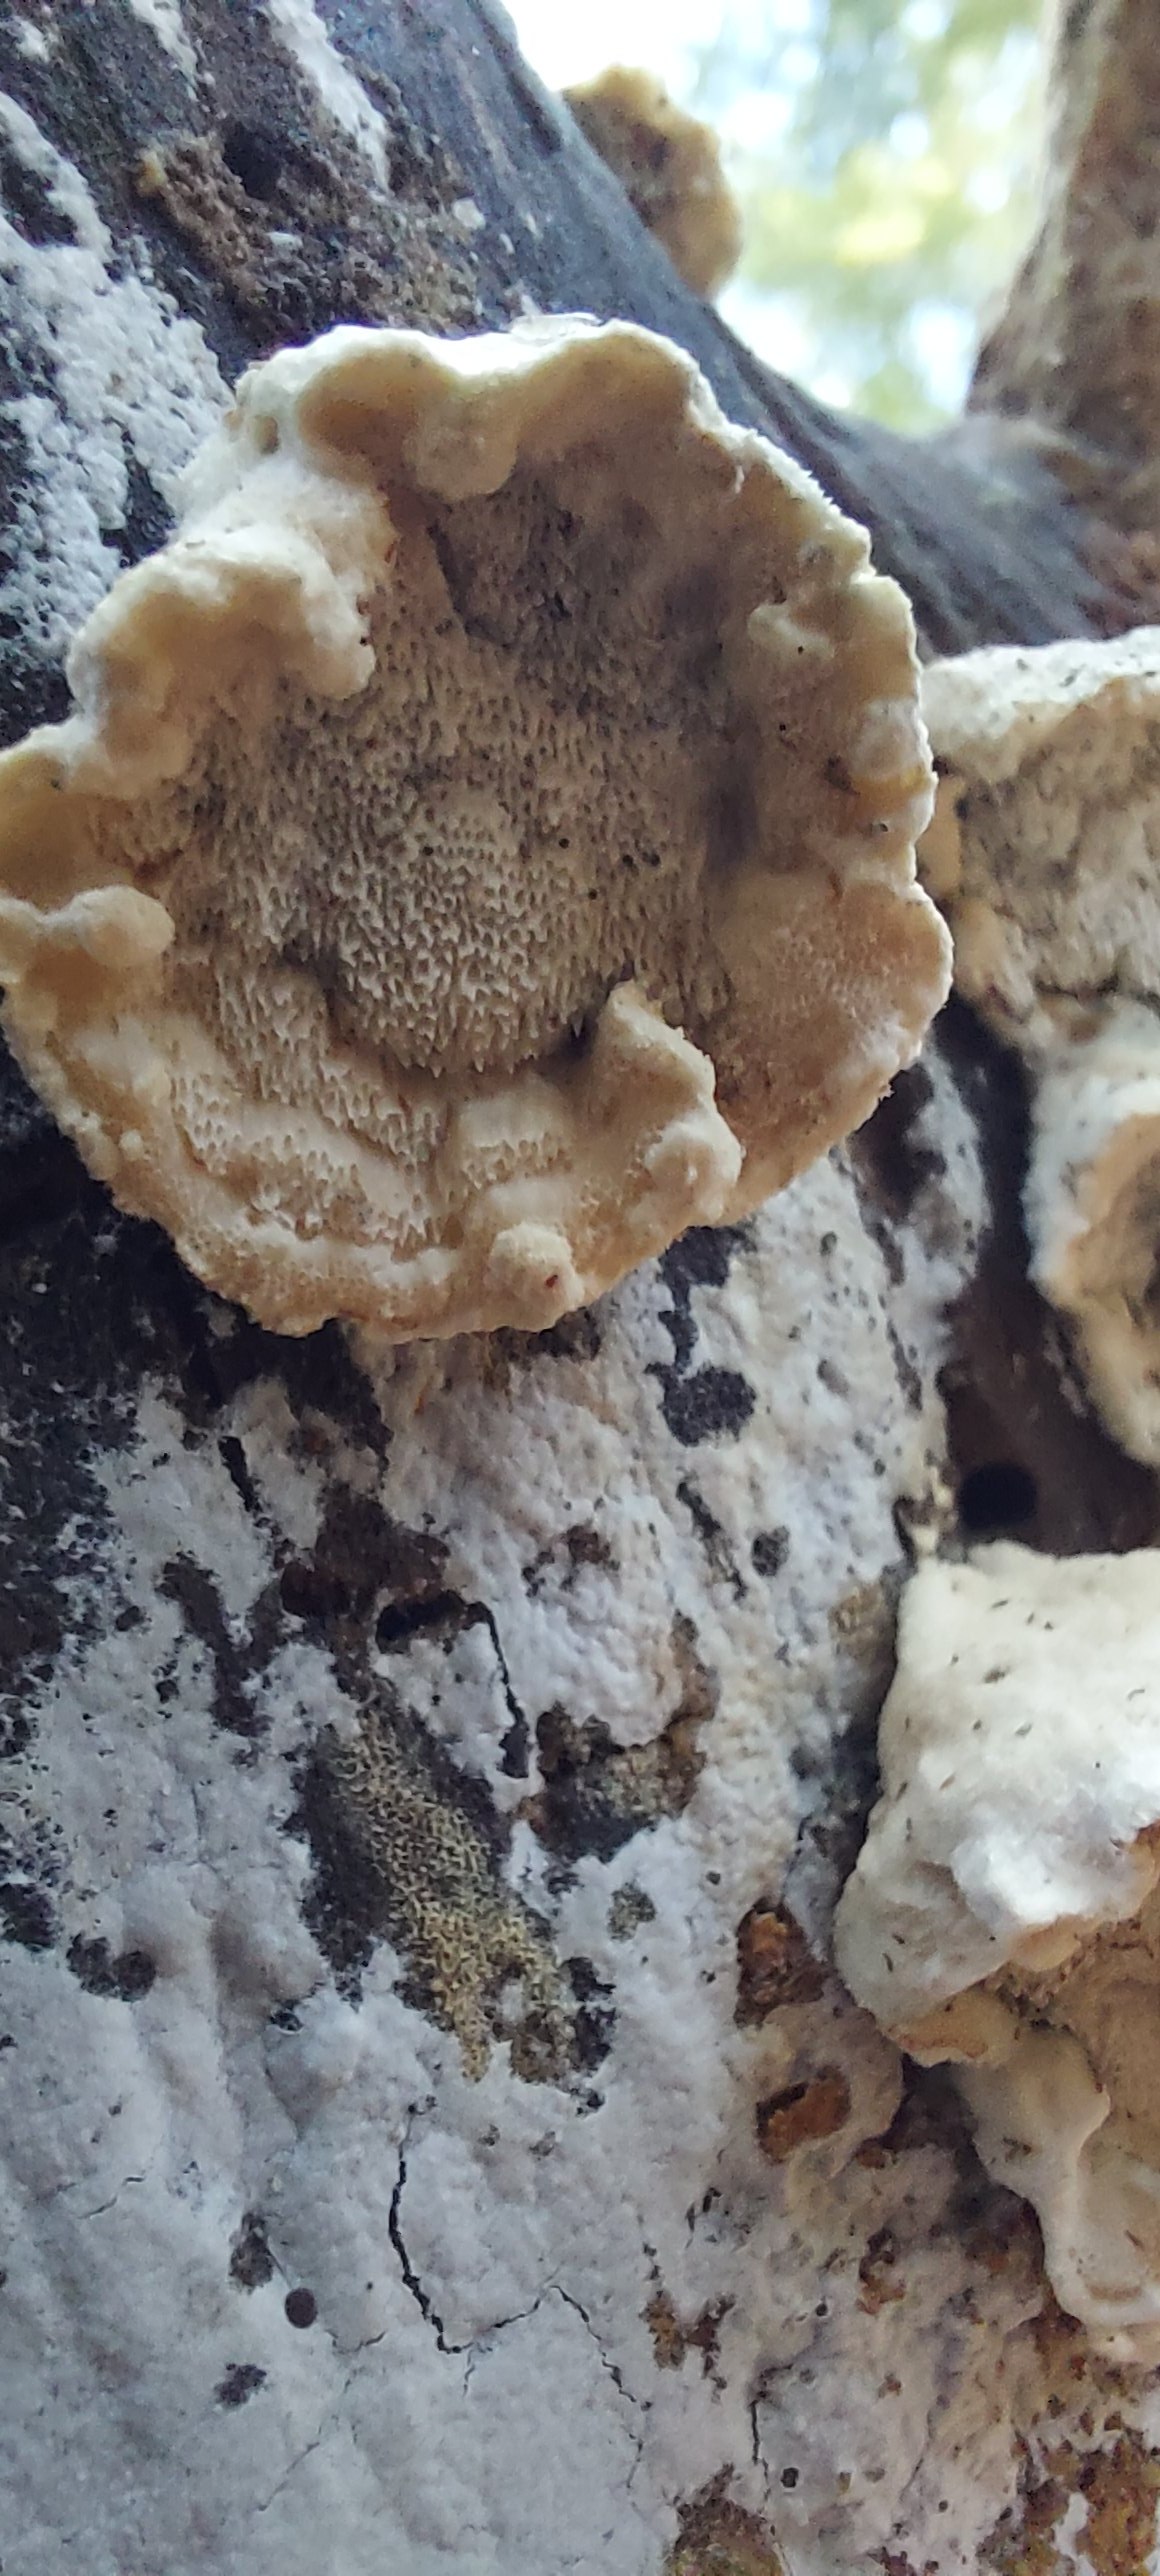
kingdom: Fungi
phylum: Basidiomycota
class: Agaricomycetes
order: Polyporales
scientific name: Polyporales
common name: poresvampordenen
